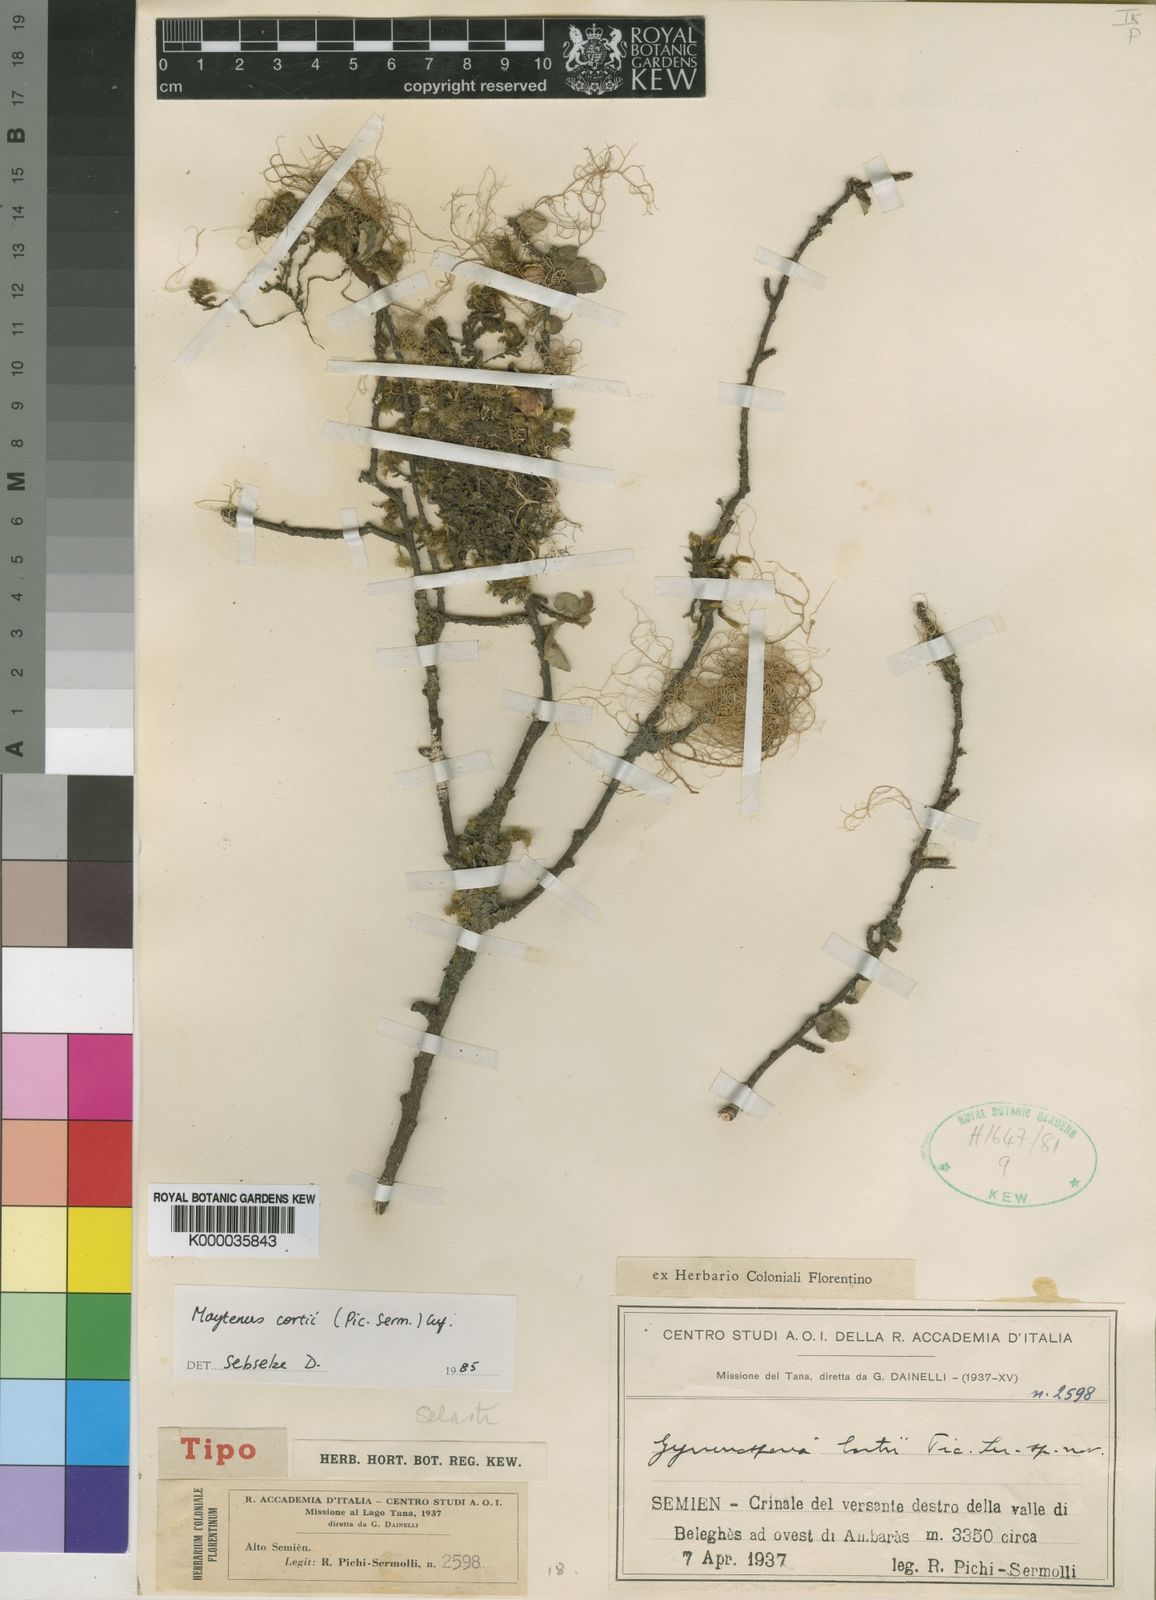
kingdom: Plantae
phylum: Tracheophyta
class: Magnoliopsida
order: Celastrales
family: Celastraceae
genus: Gymnosporia
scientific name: Gymnosporia cortii
